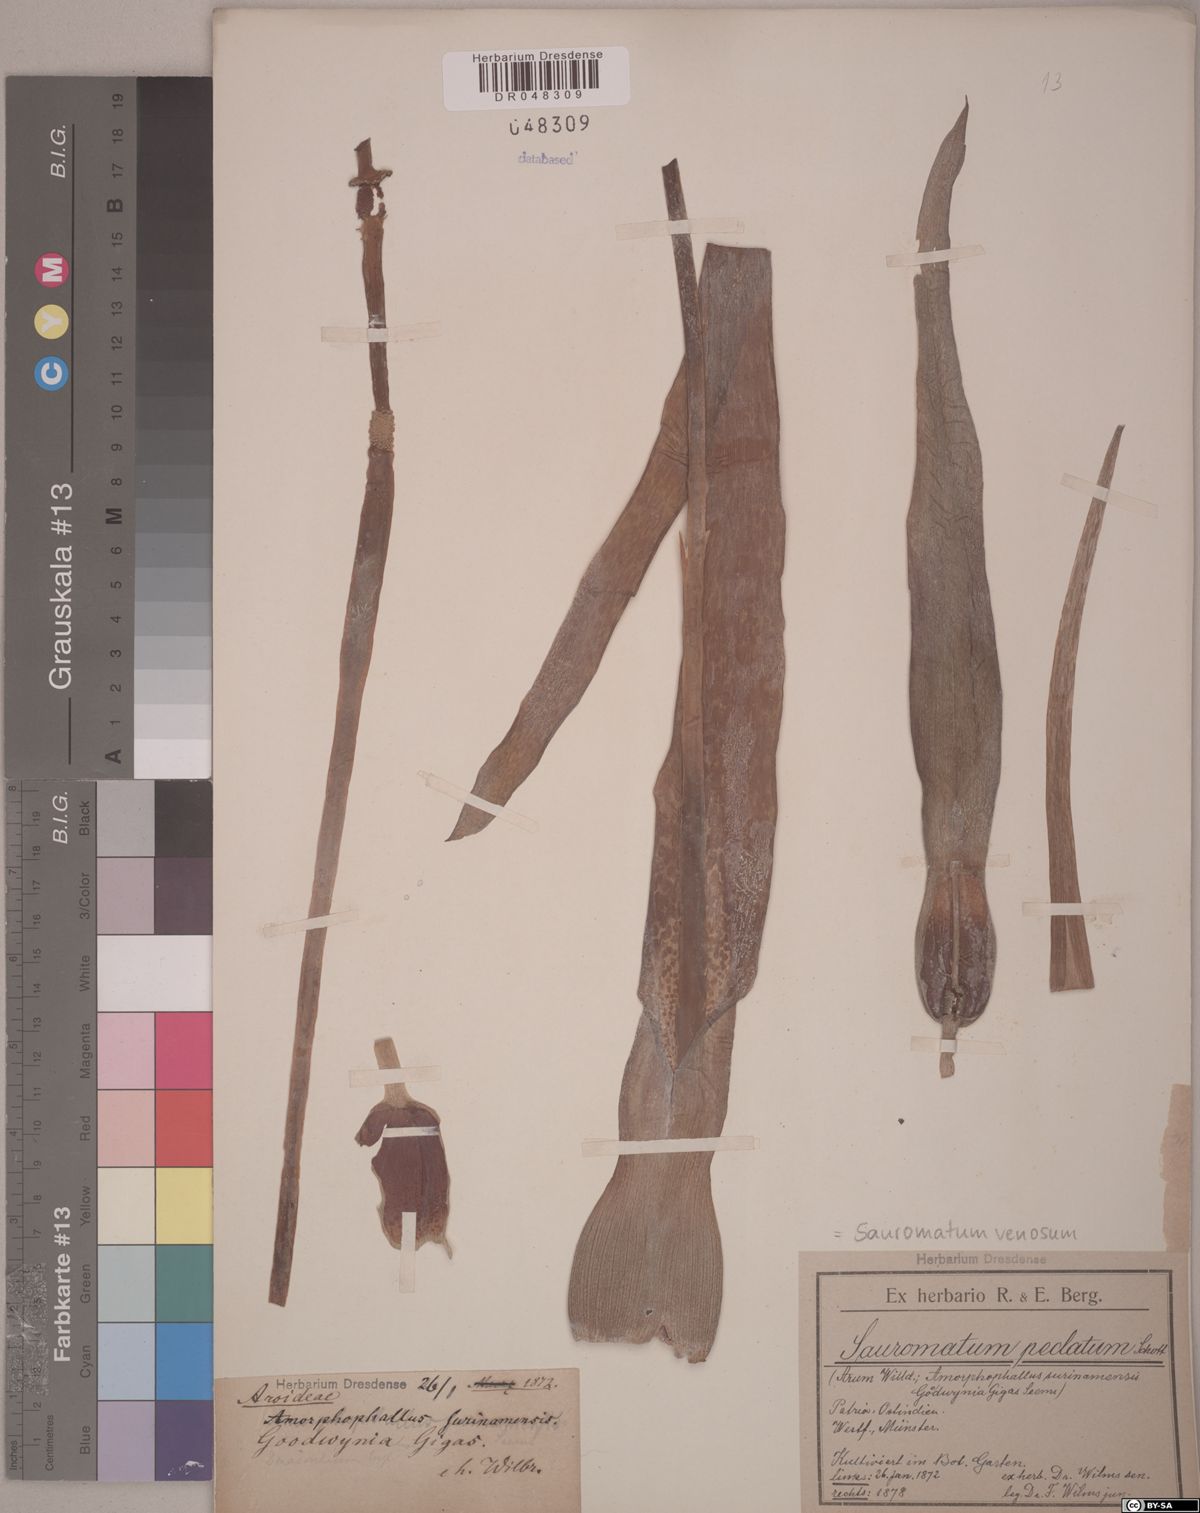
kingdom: Plantae
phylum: Tracheophyta
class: Liliopsida
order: Alismatales
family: Araceae
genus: Sauromatum
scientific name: Sauromatum venosum
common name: Voodoo lily
